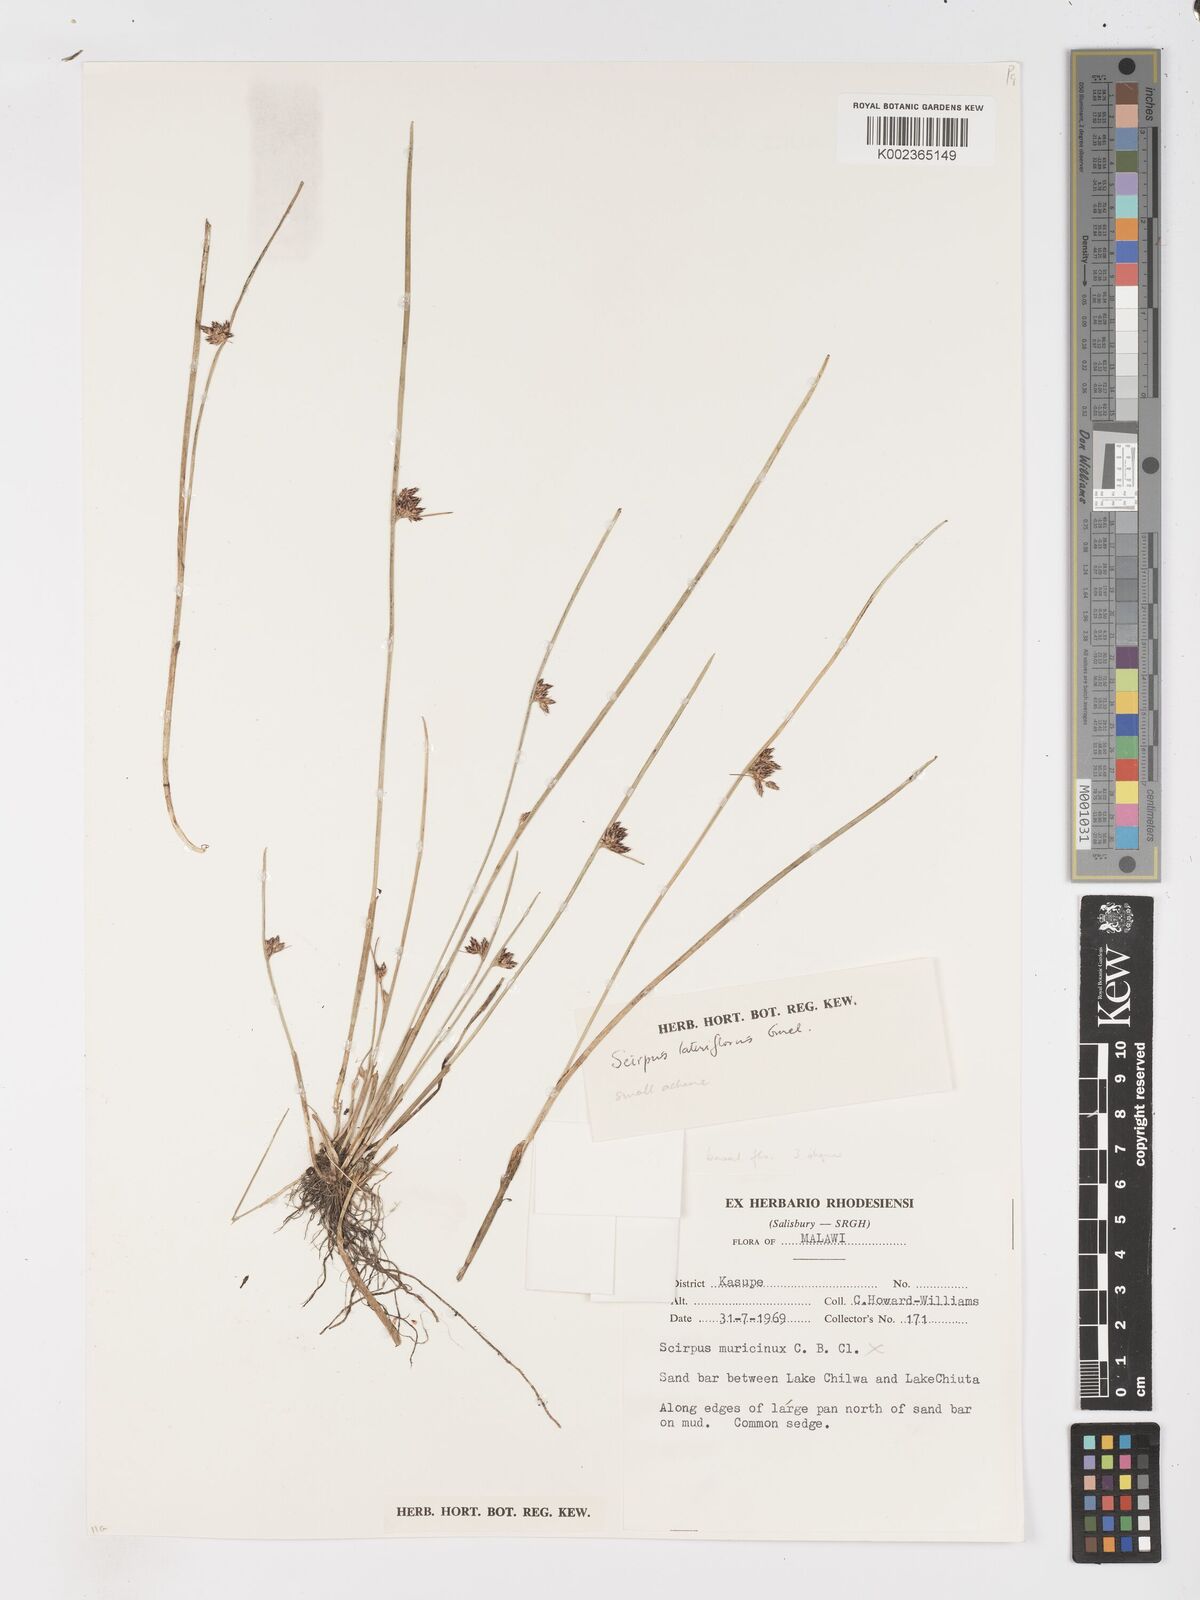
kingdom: Plantae
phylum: Tracheophyta
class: Liliopsida
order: Poales
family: Cyperaceae
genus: Schoenoplectus
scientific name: Schoenoplectus
